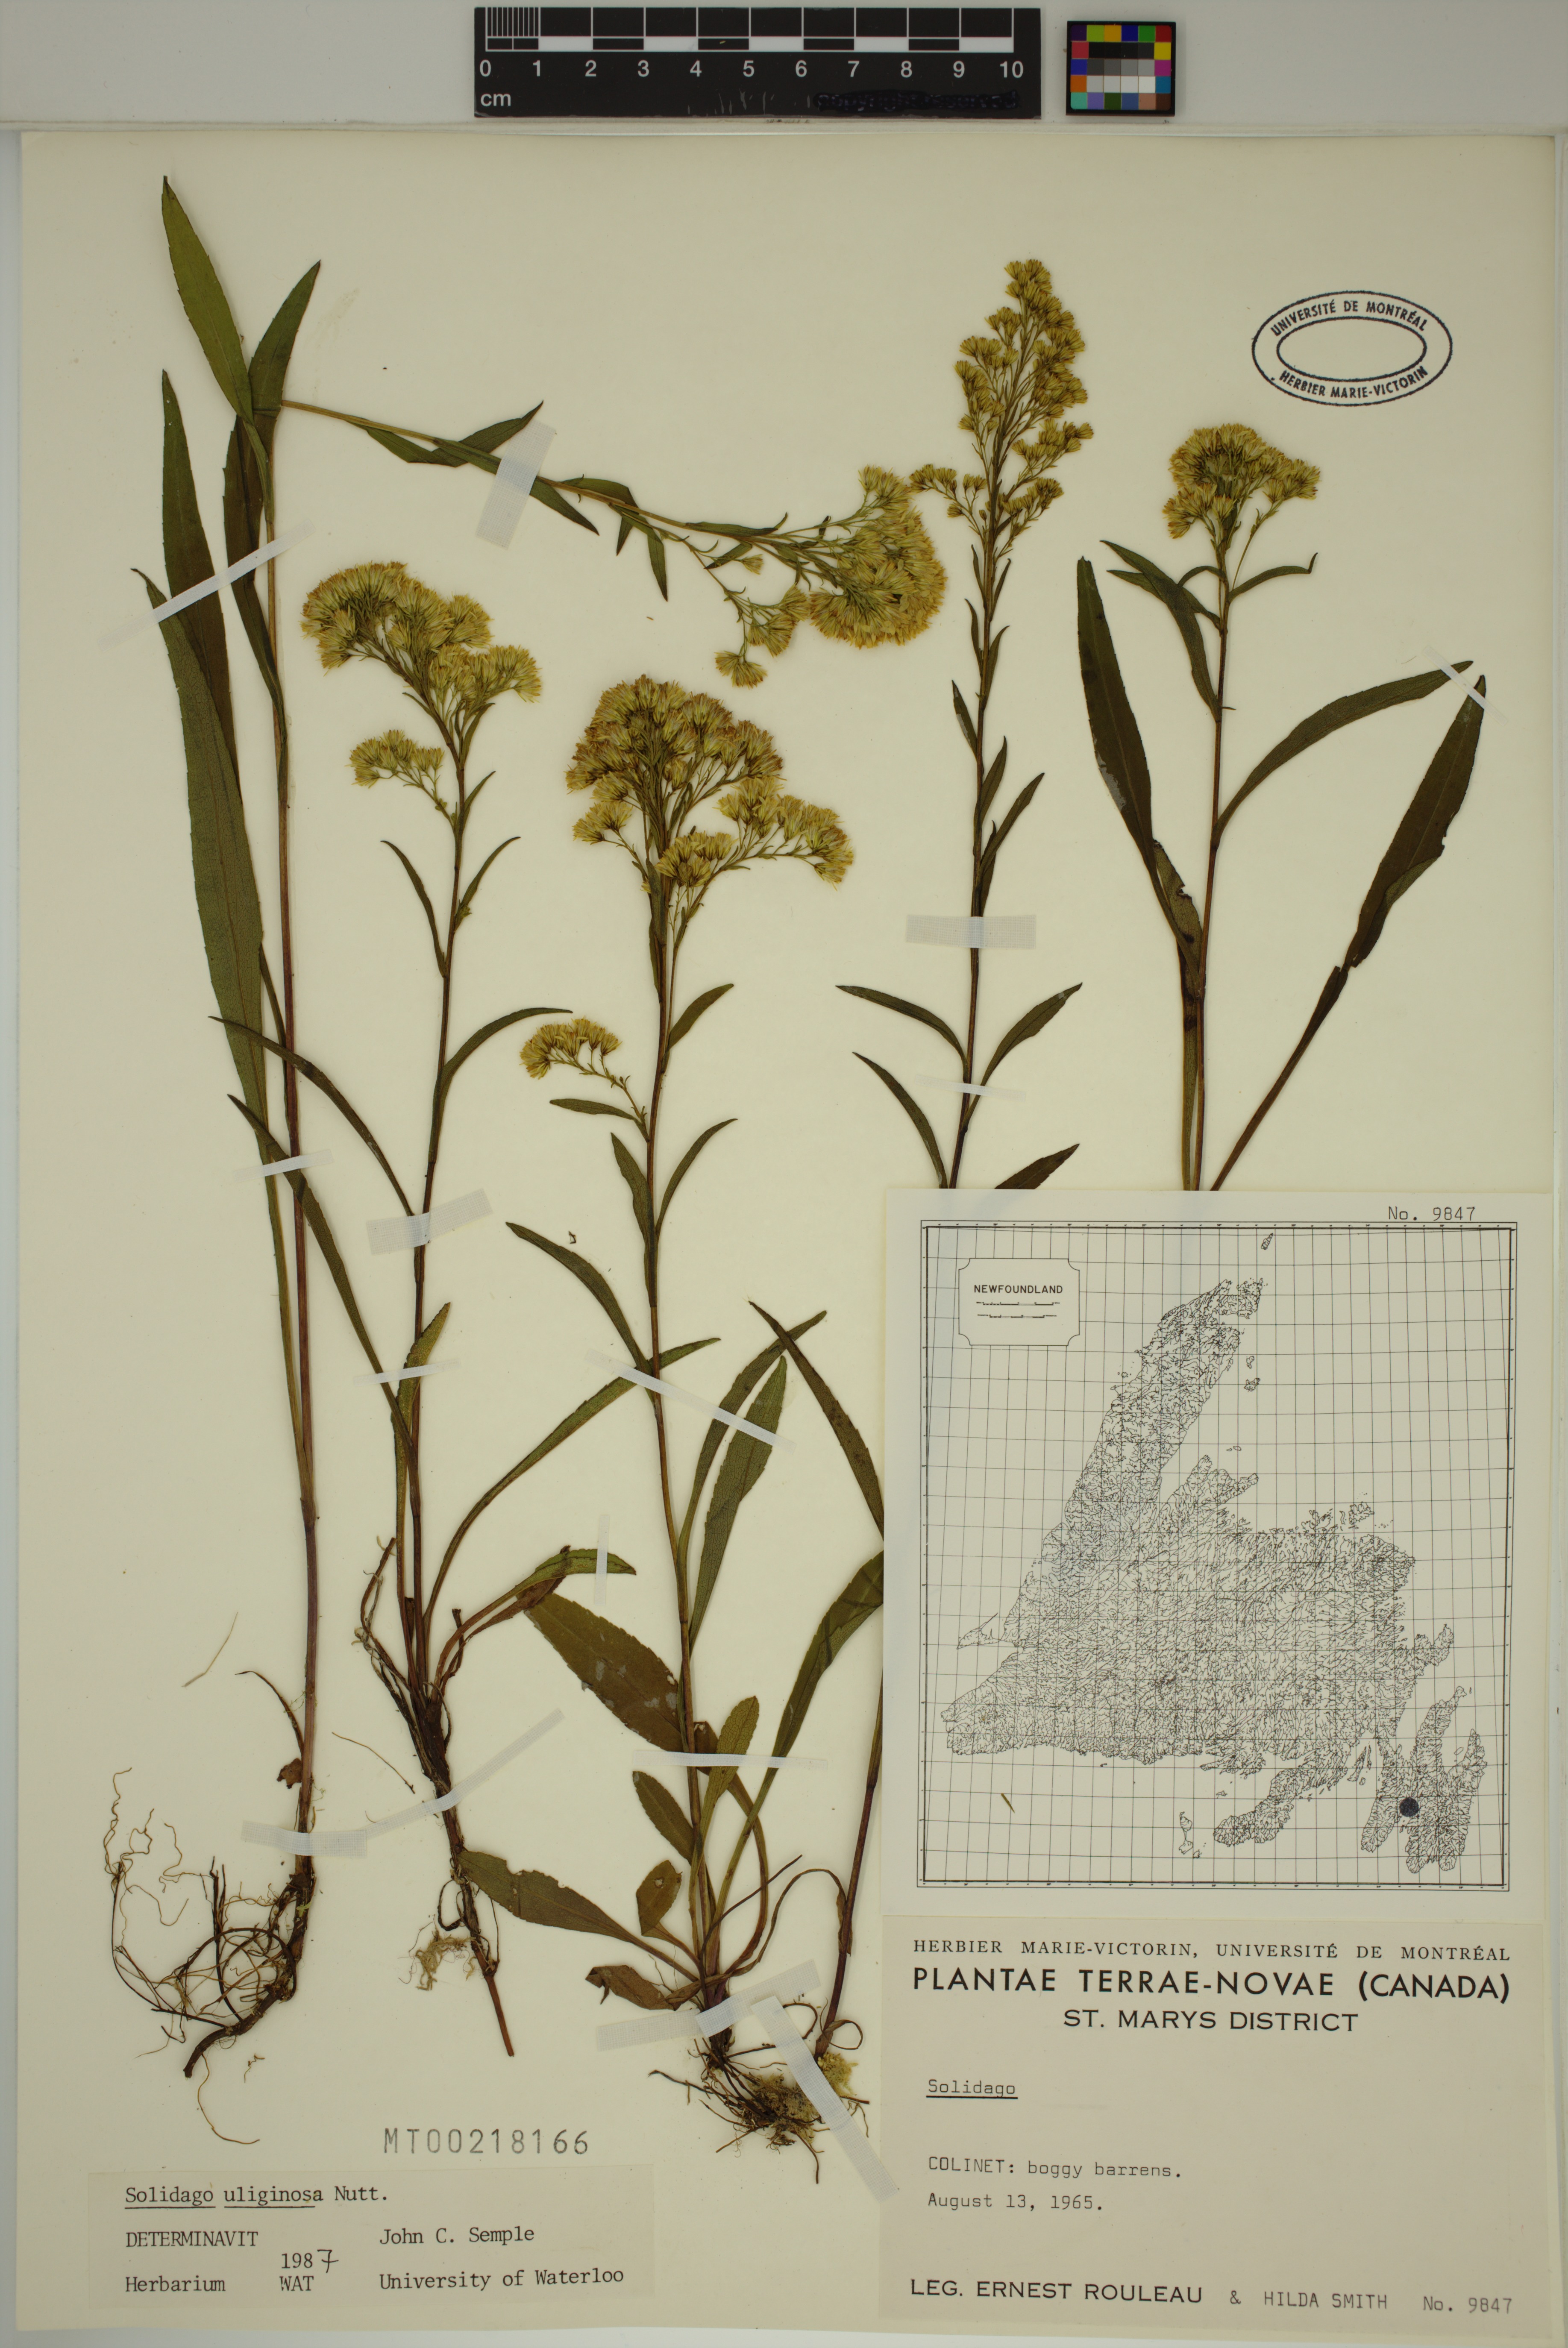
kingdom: Plantae
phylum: Tracheophyta
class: Magnoliopsida
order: Asterales
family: Asteraceae
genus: Solidago
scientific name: Solidago uliginosa
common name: Bog goldenrod
